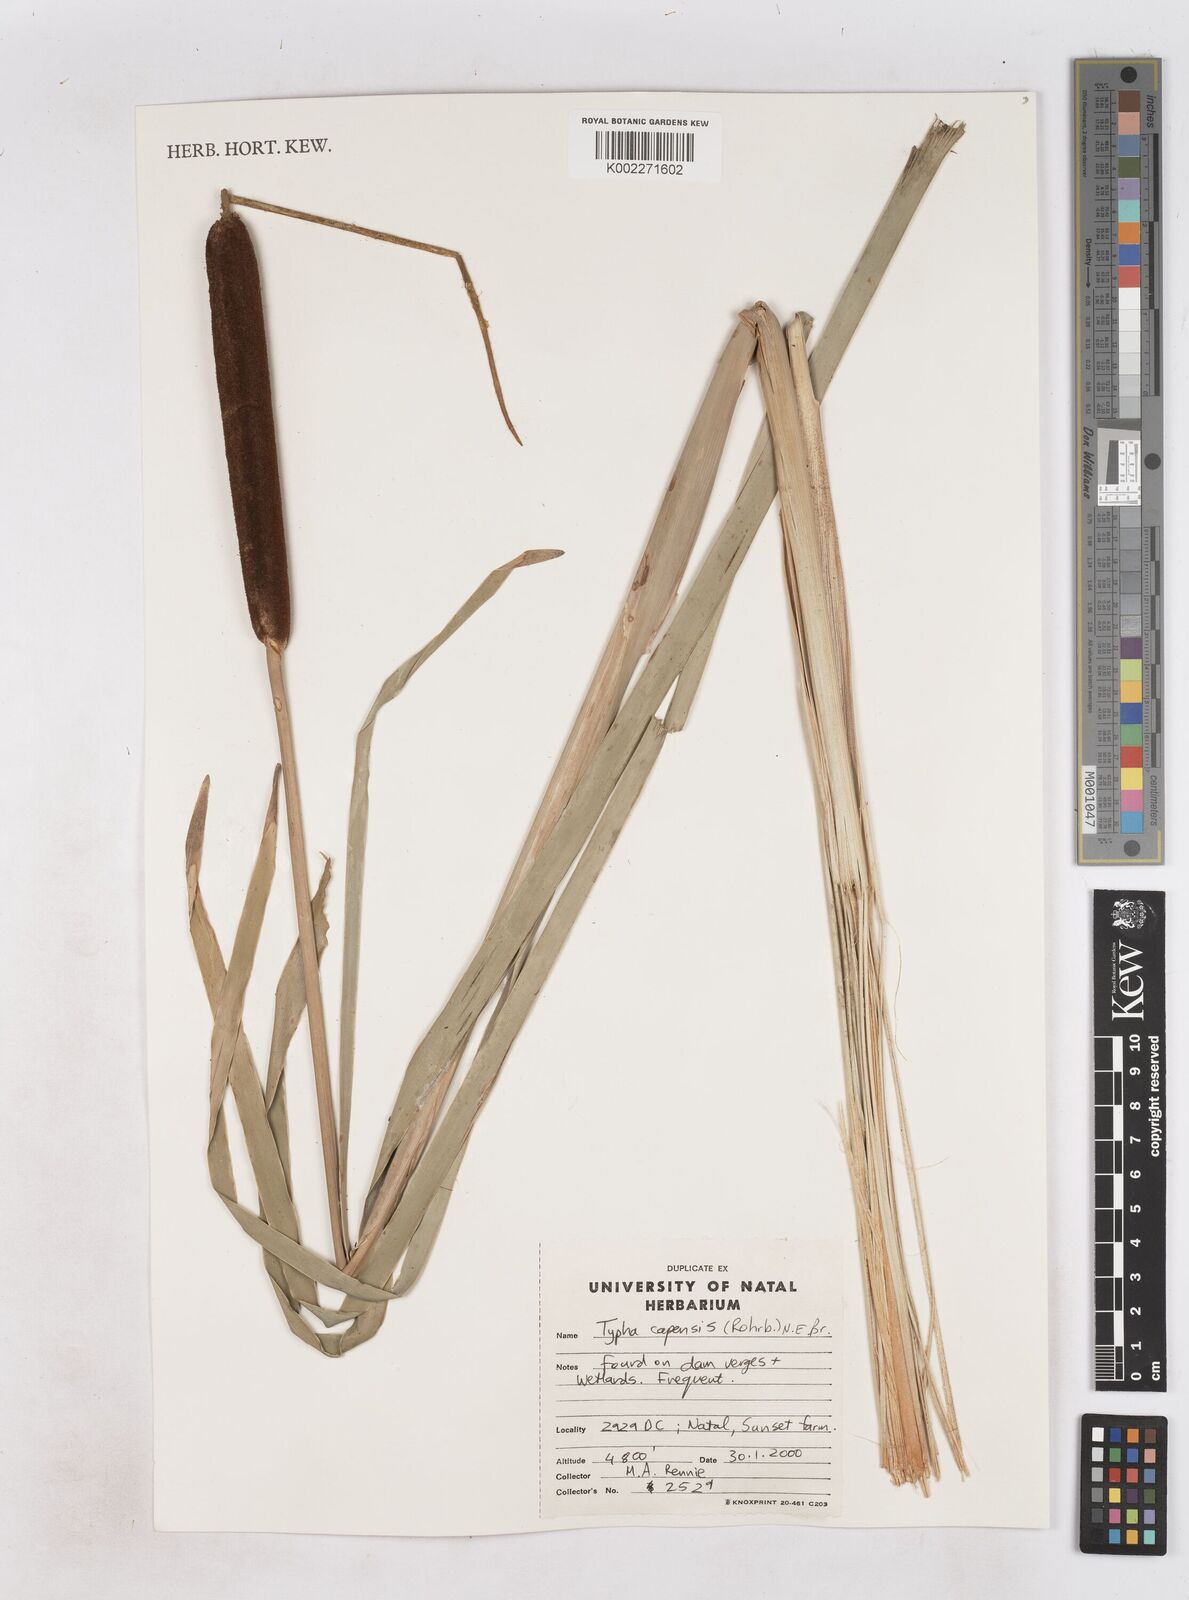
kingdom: Plantae
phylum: Tracheophyta
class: Liliopsida
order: Poales
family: Typhaceae
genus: Typha
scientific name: Typha capensis
